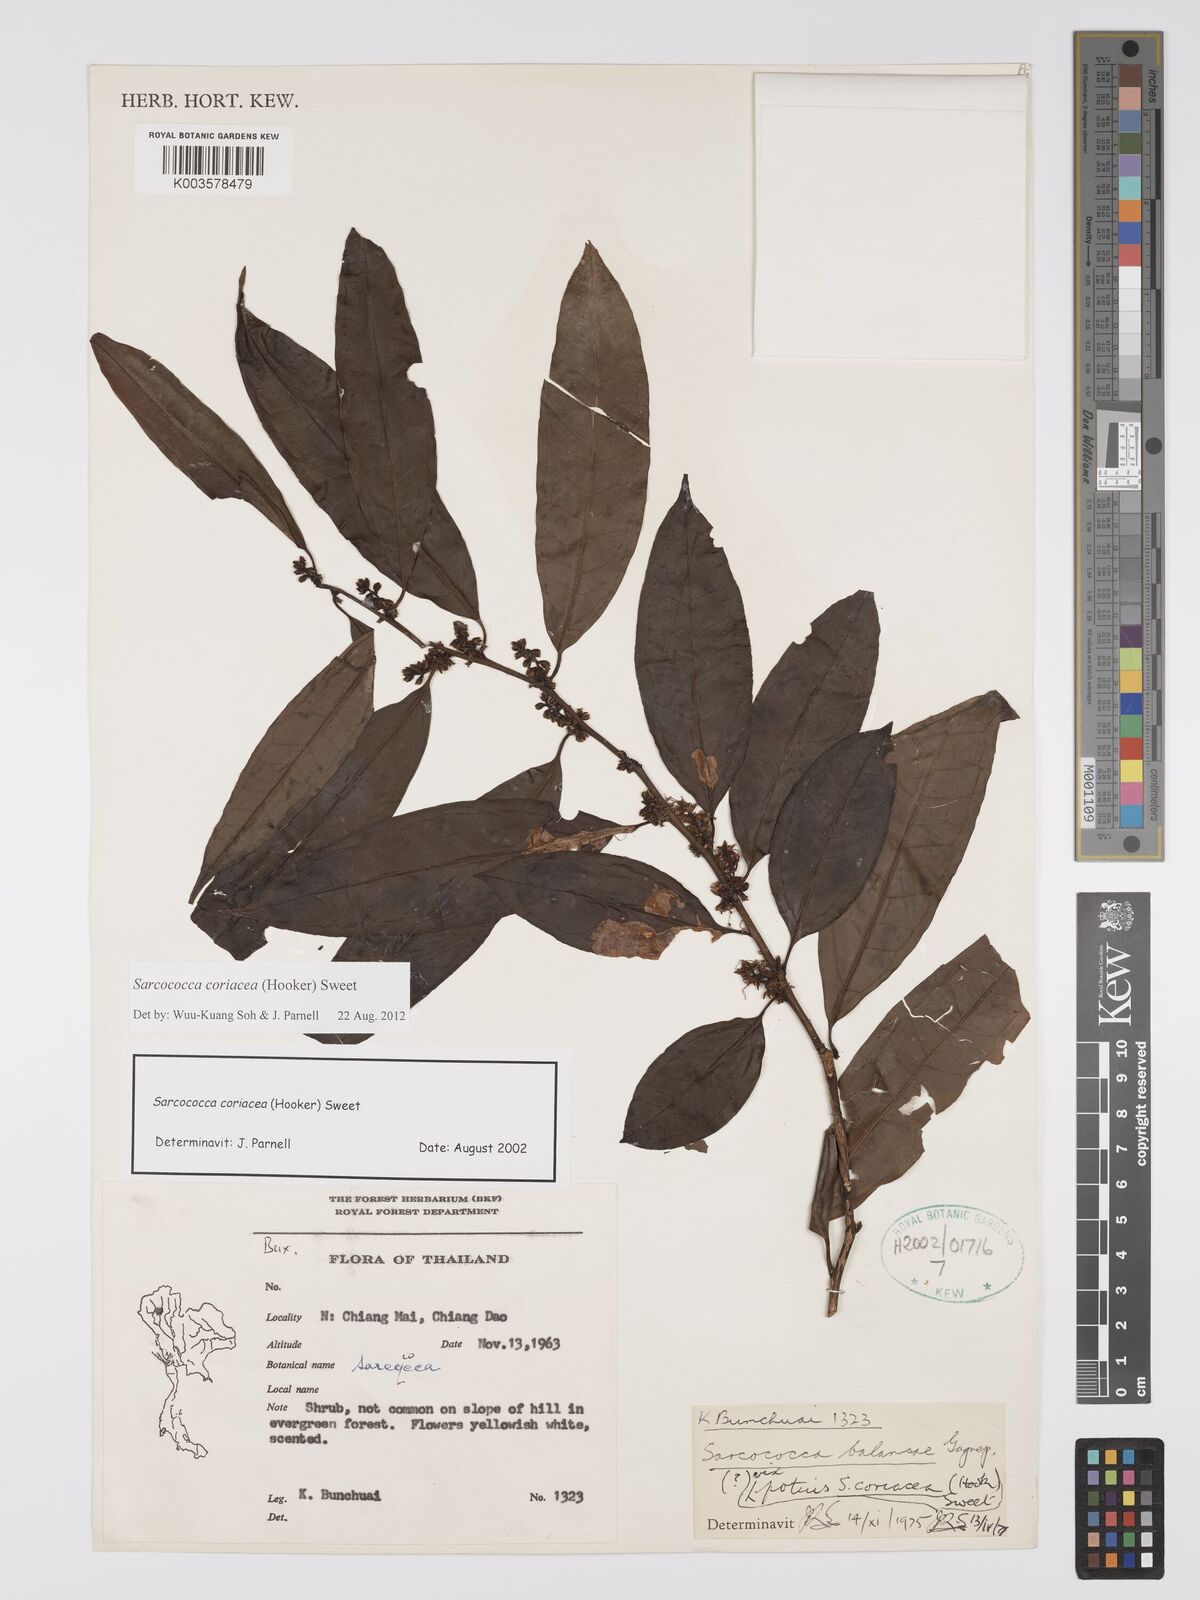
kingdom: Plantae
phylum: Tracheophyta
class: Magnoliopsida
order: Buxales
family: Buxaceae
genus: Sarcococca
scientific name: Sarcococca coriacea
